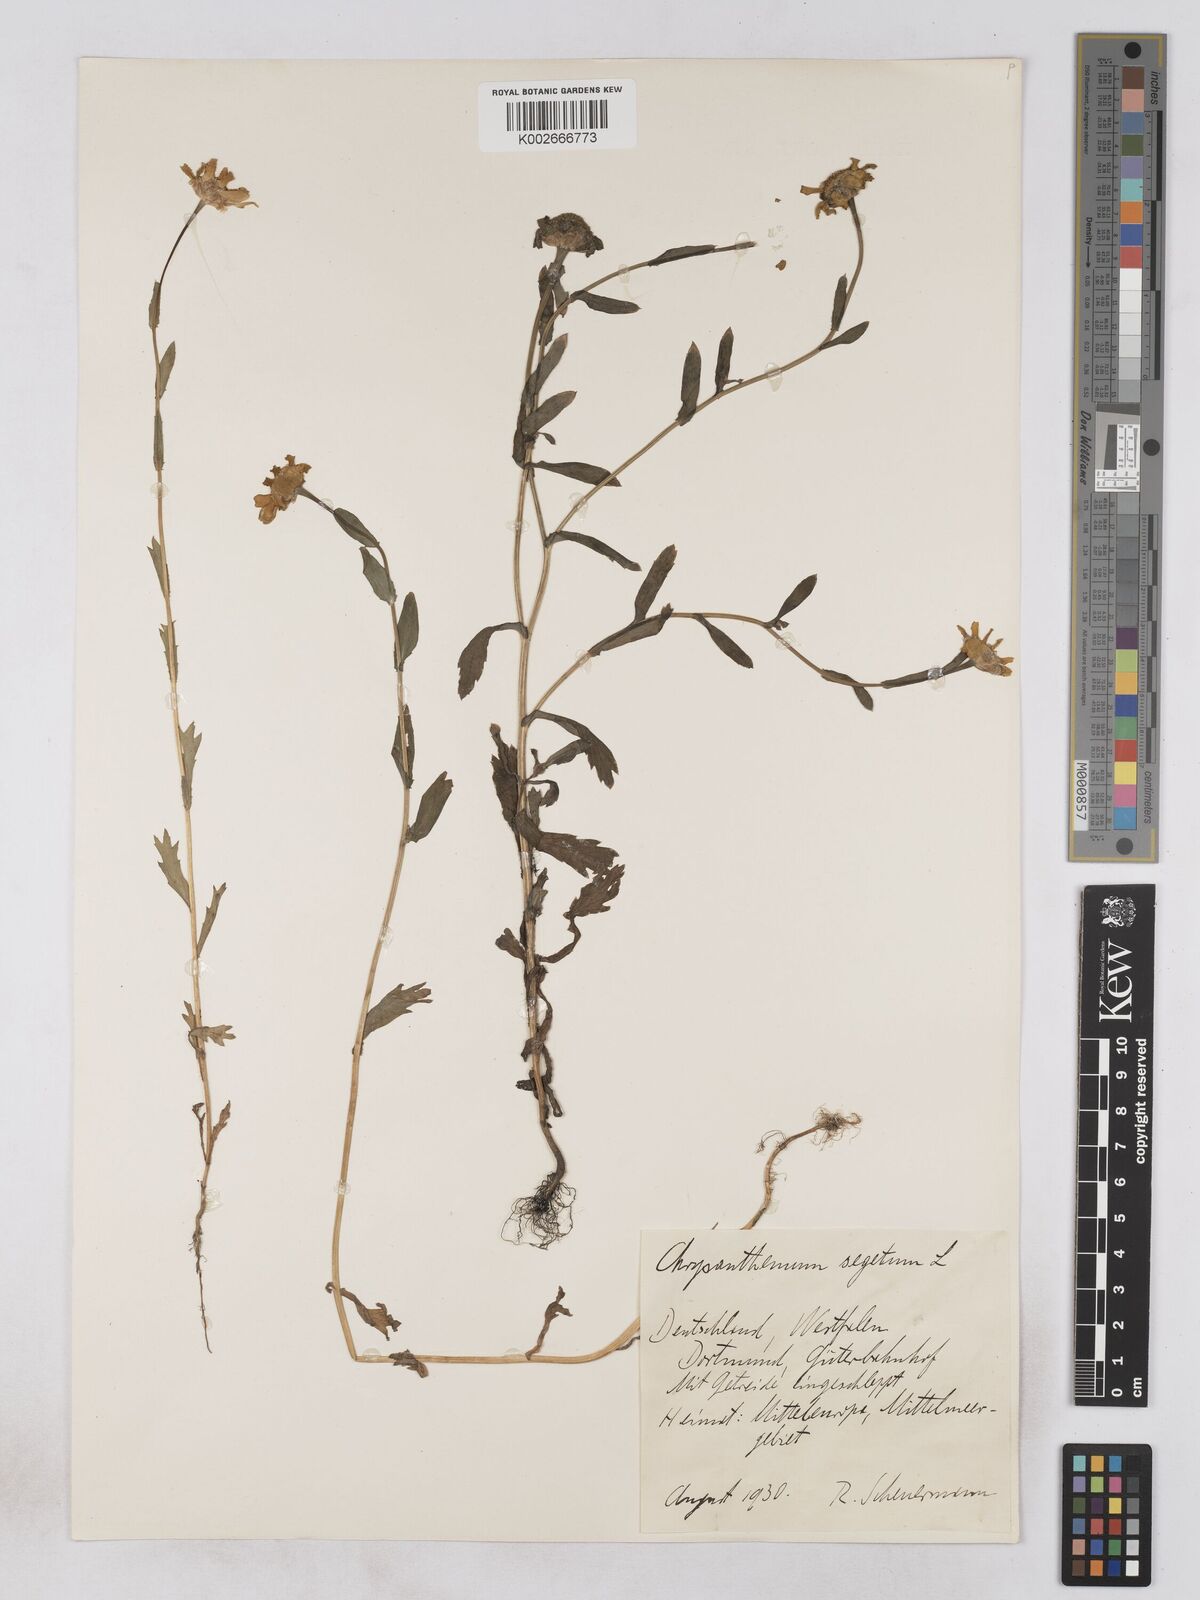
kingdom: Plantae
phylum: Tracheophyta
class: Magnoliopsida
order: Asterales
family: Asteraceae
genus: Glebionis
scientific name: Glebionis segetum
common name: Corndaisy
